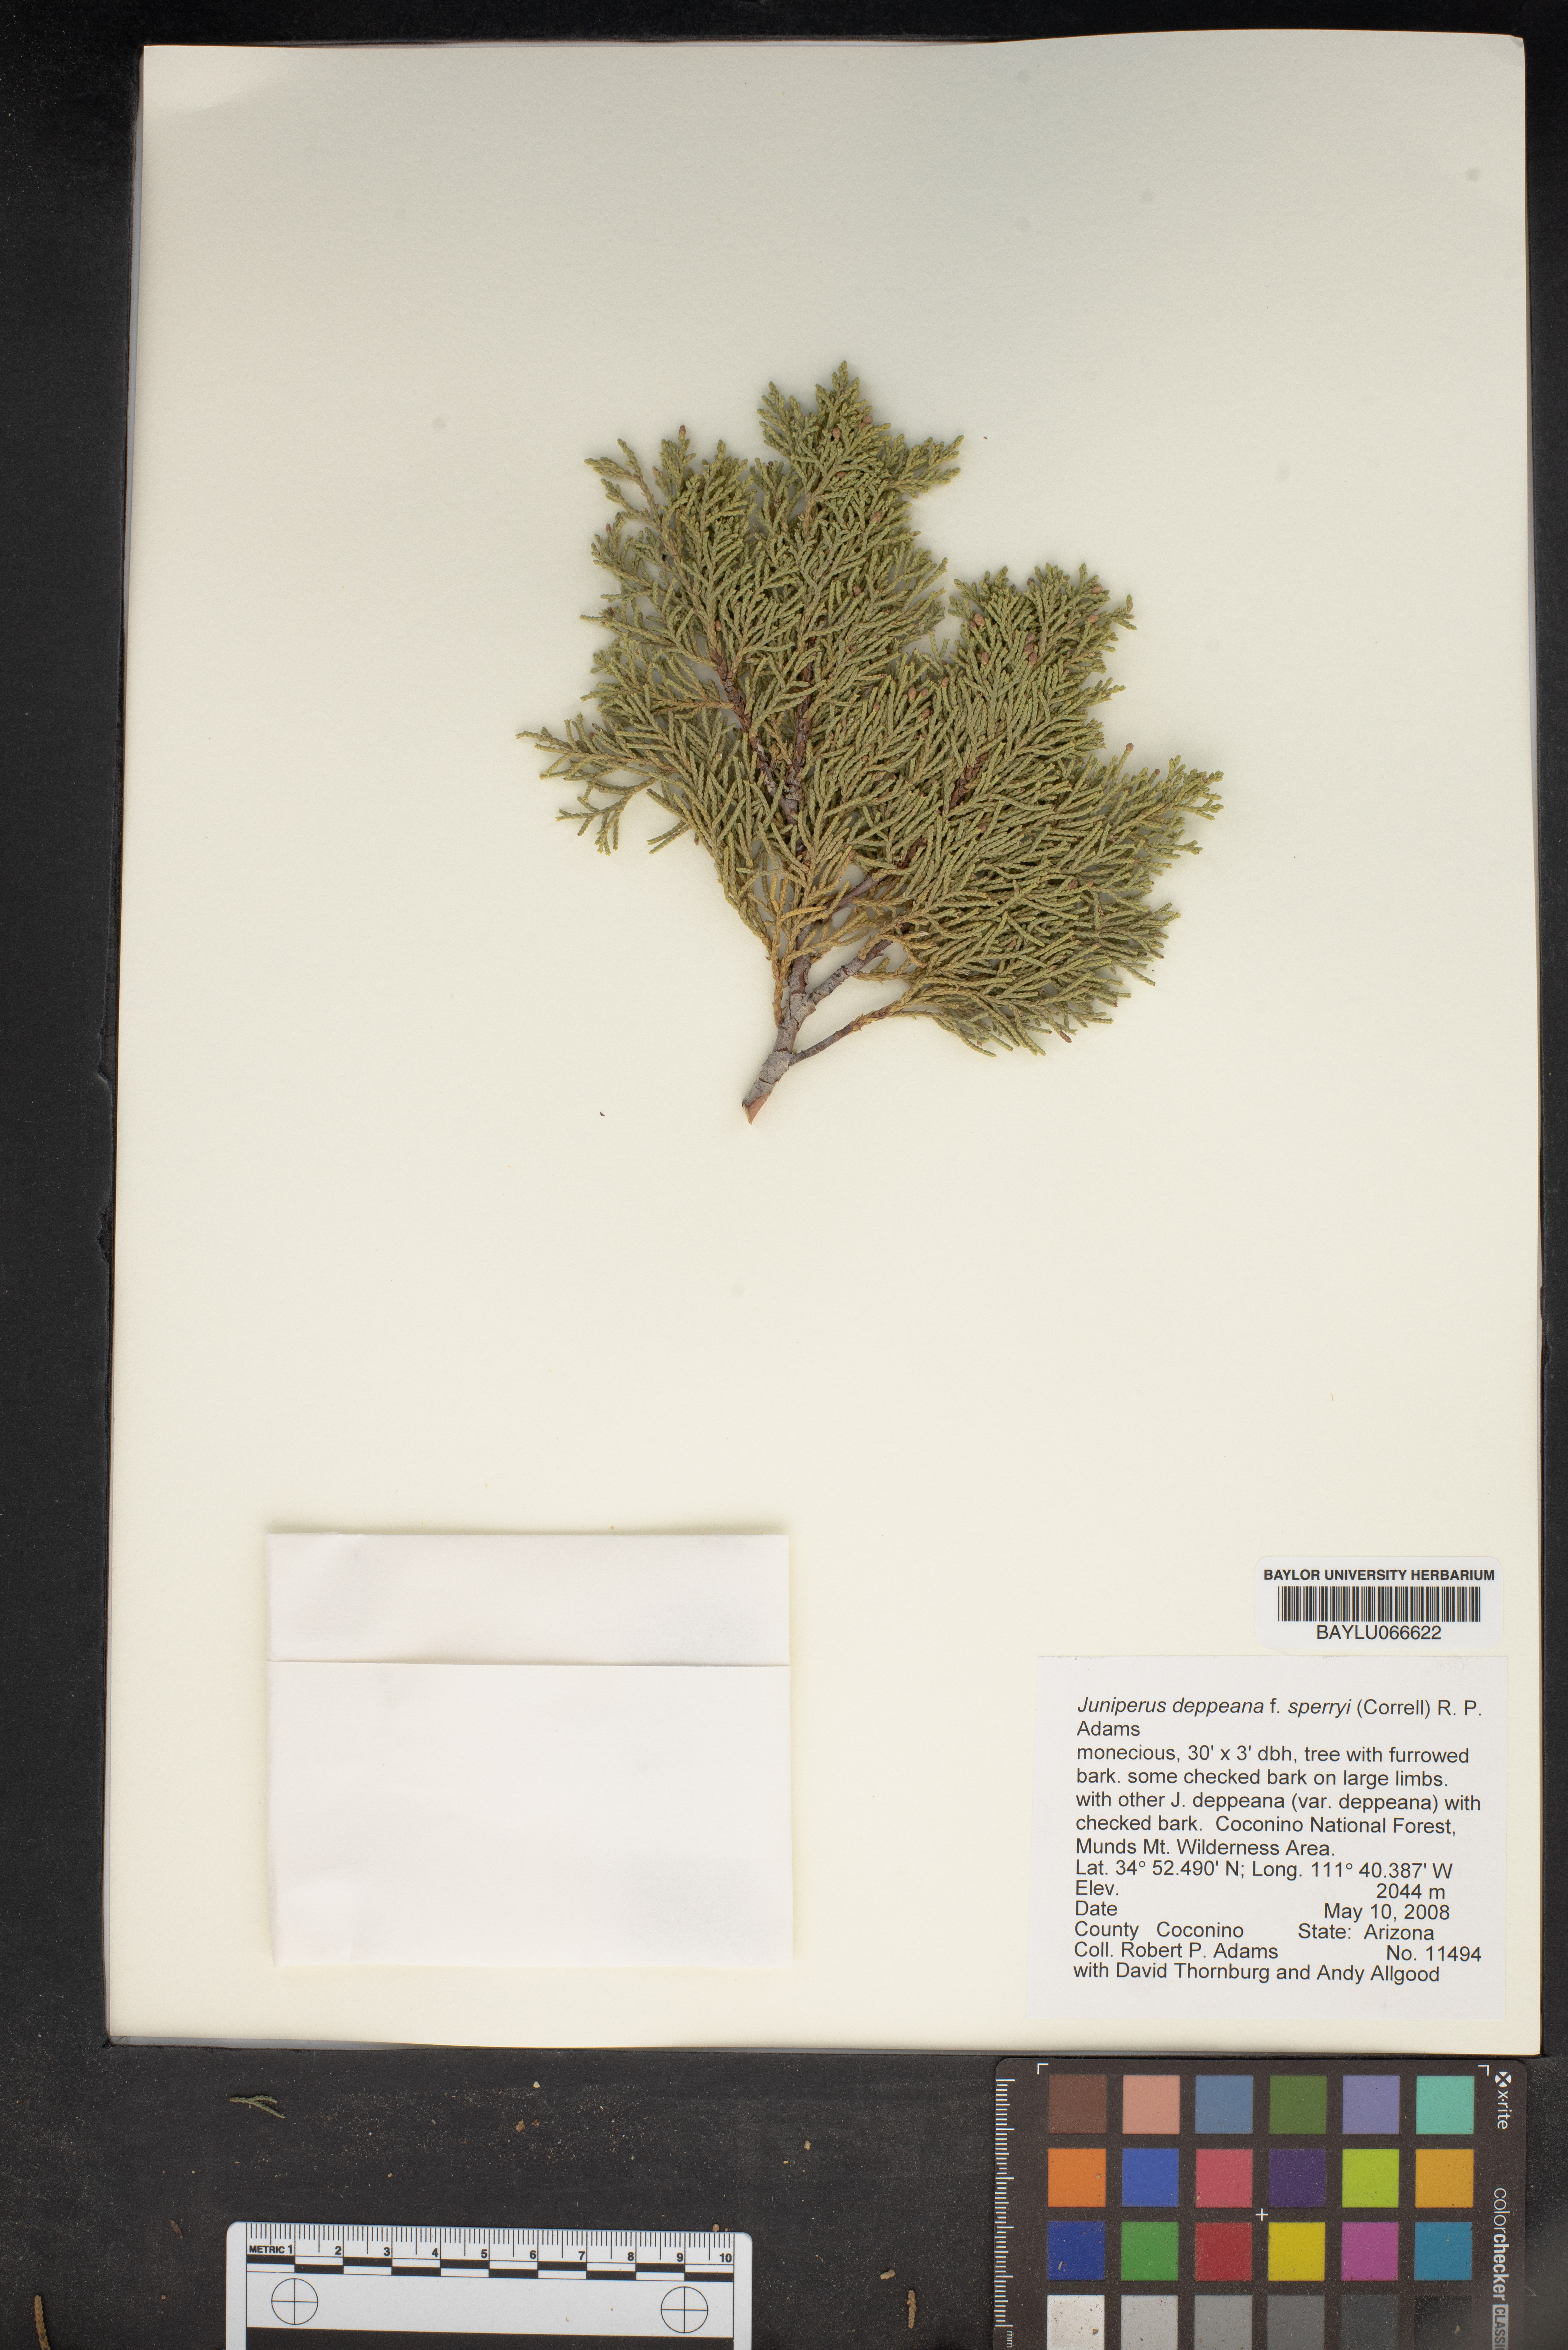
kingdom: Plantae
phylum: Tracheophyta
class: Pinopsida
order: Pinales
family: Cupressaceae
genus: Juniperus
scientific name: Juniperus deppeana
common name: Alligator juniper
